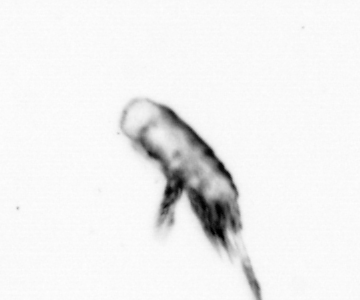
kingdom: Animalia
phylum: Arthropoda
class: Copepoda
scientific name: Copepoda
